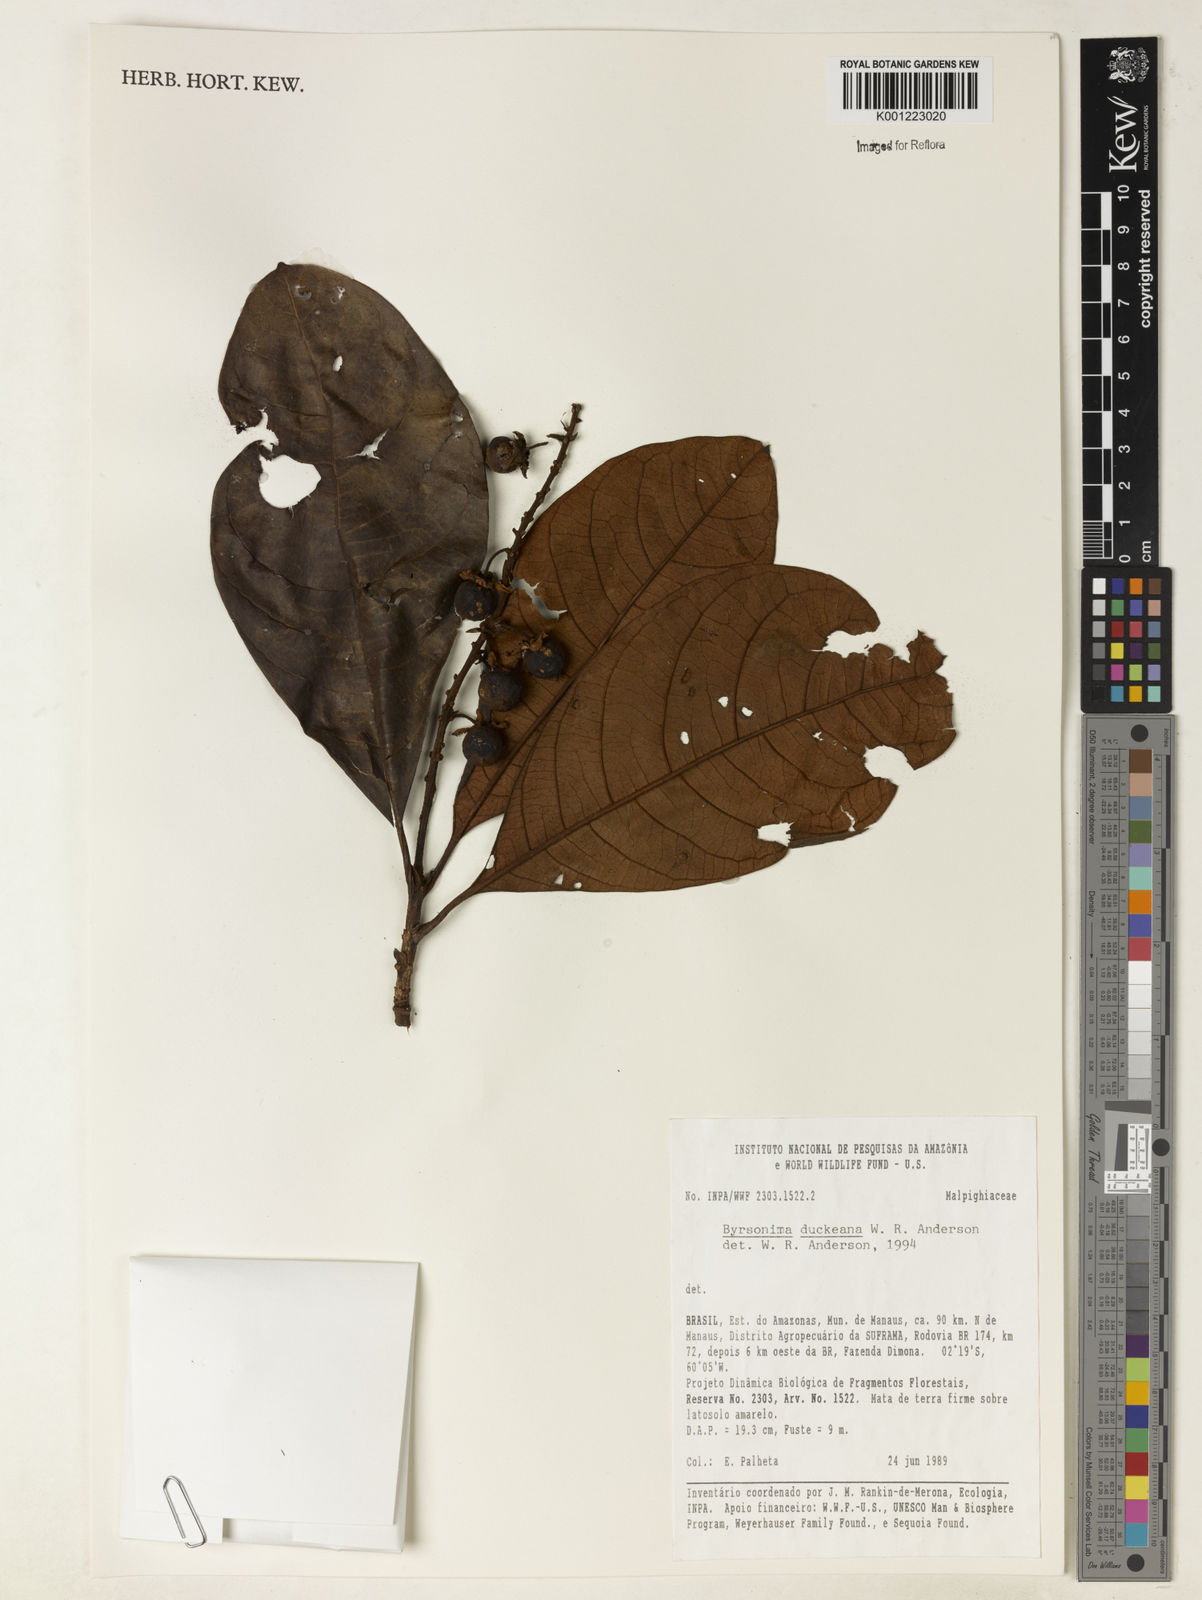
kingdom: Plantae
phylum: Tracheophyta
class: Magnoliopsida
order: Malpighiales
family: Malpighiaceae
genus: Byrsonima
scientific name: Byrsonima duckeana
